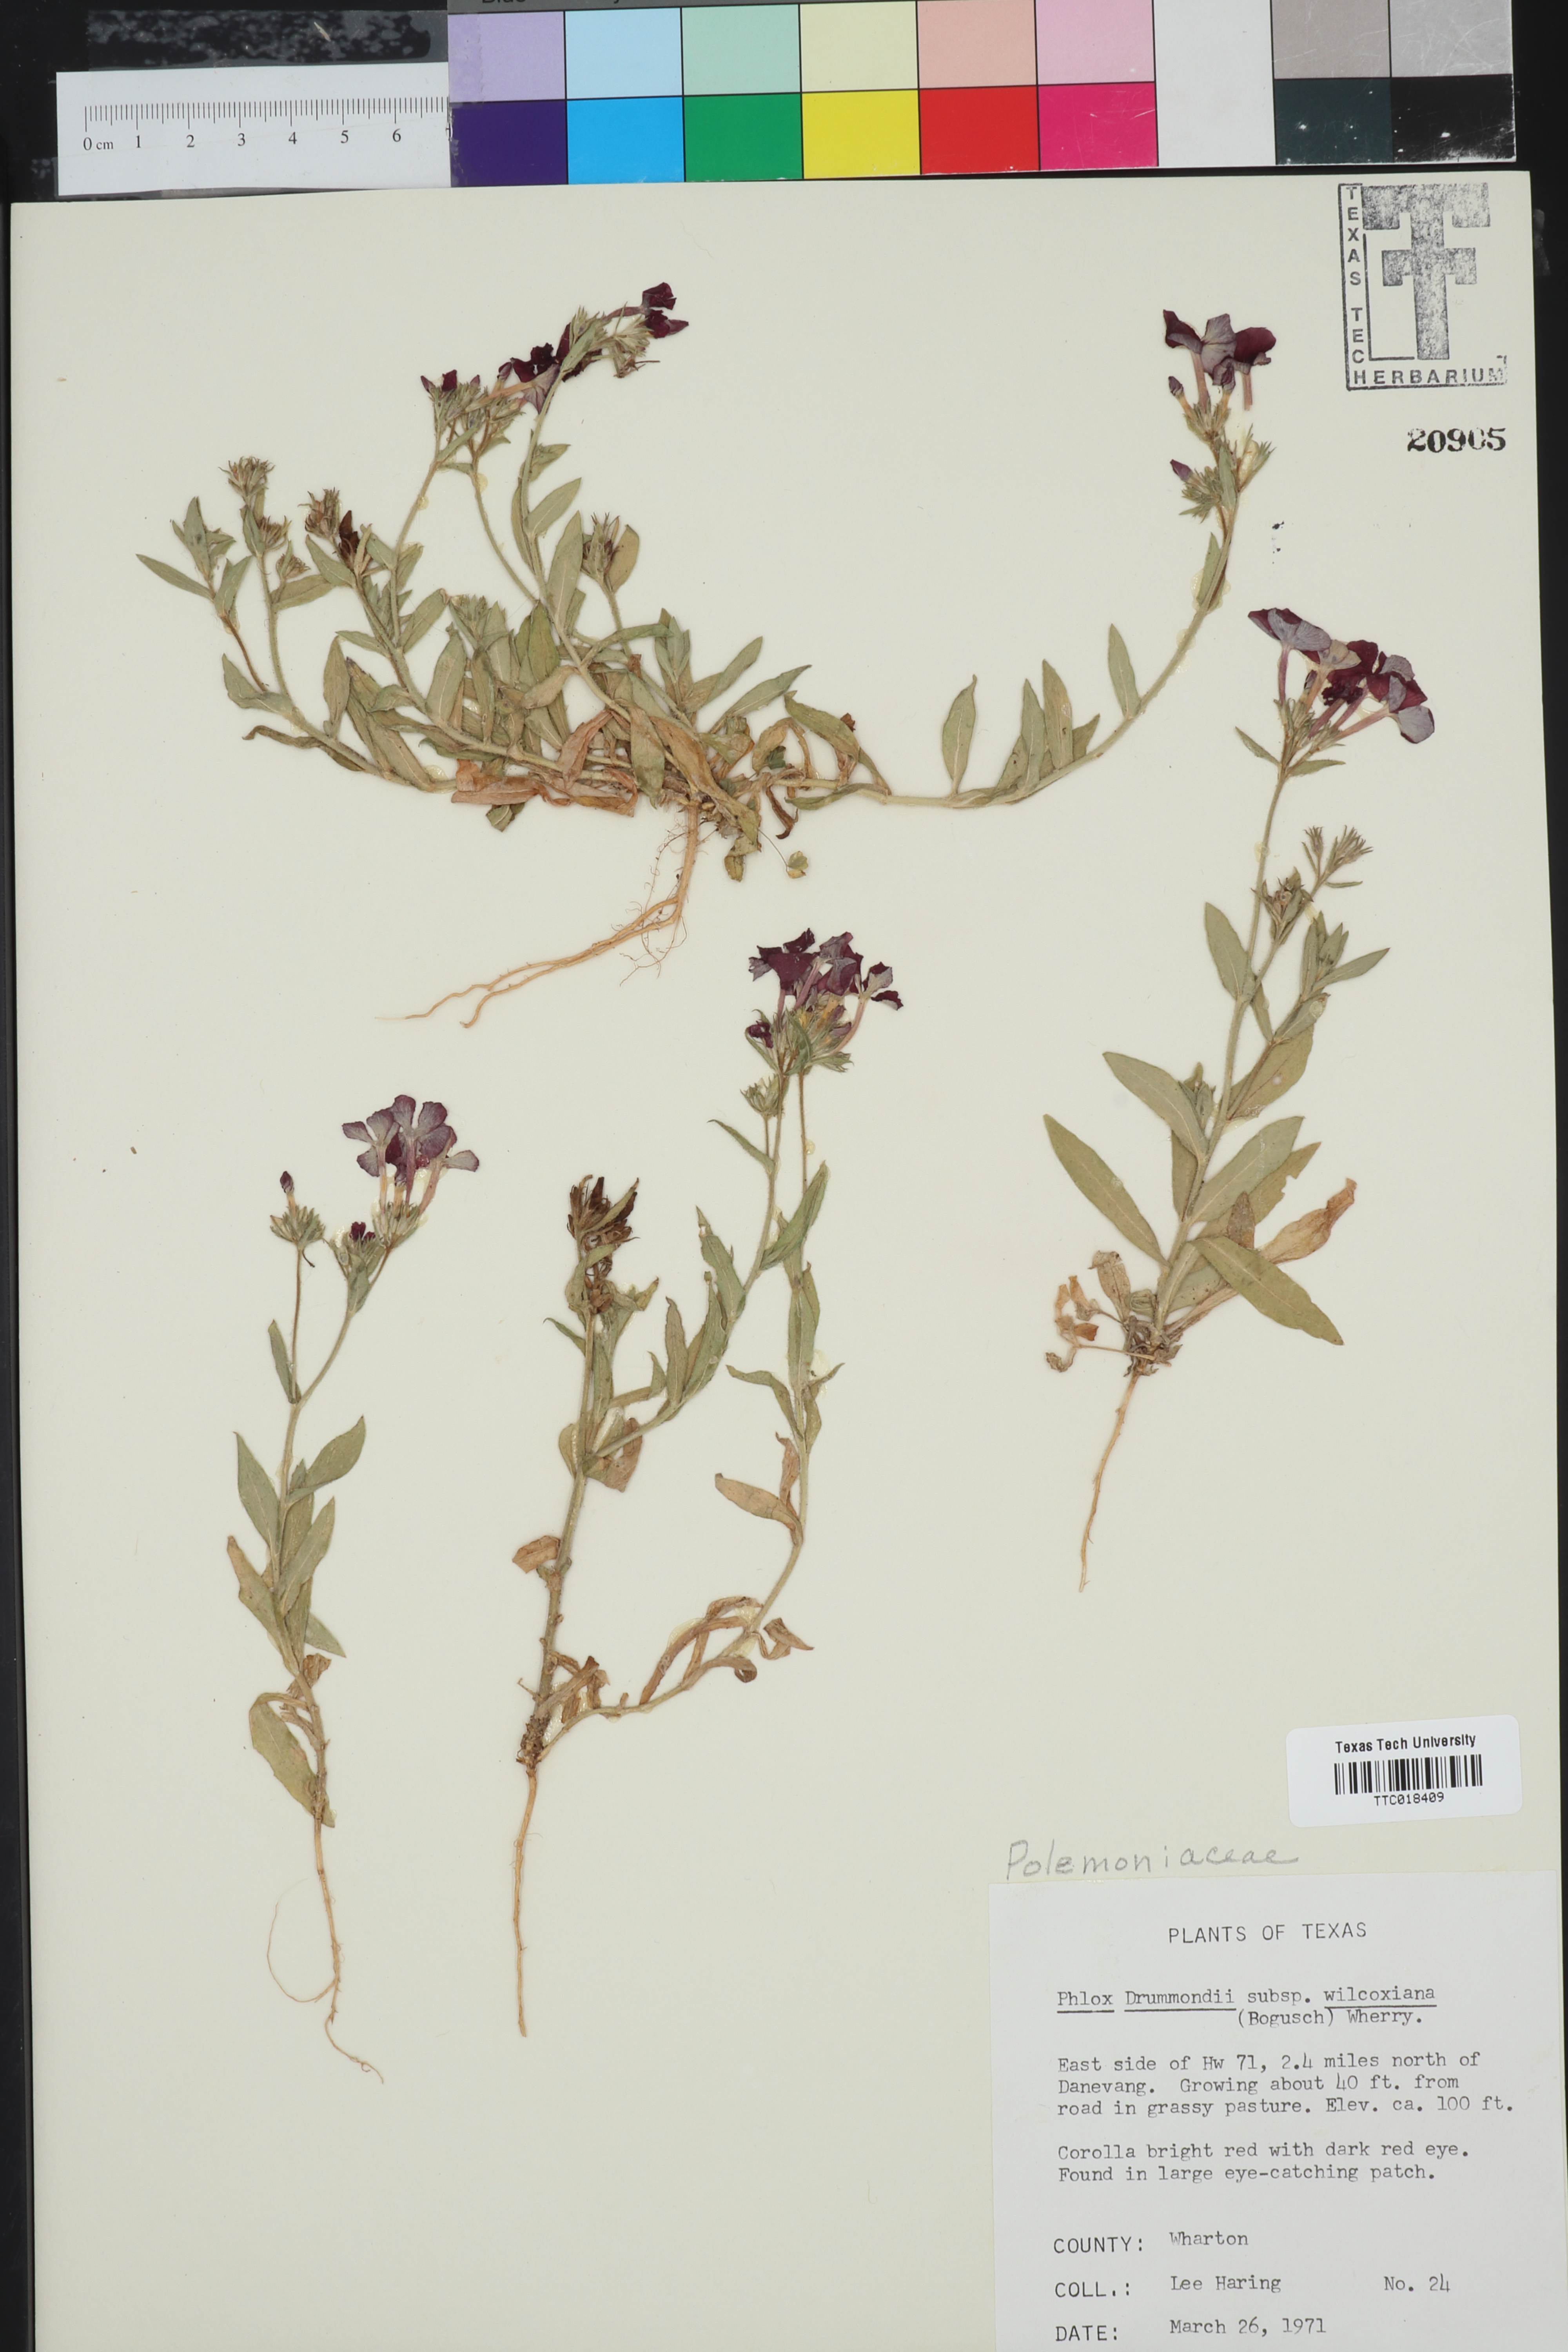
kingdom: Plantae
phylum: Tracheophyta
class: Magnoliopsida
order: Ericales
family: Polemoniaceae
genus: Phlox
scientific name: Phlox drummondii
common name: Drummond's phlox
